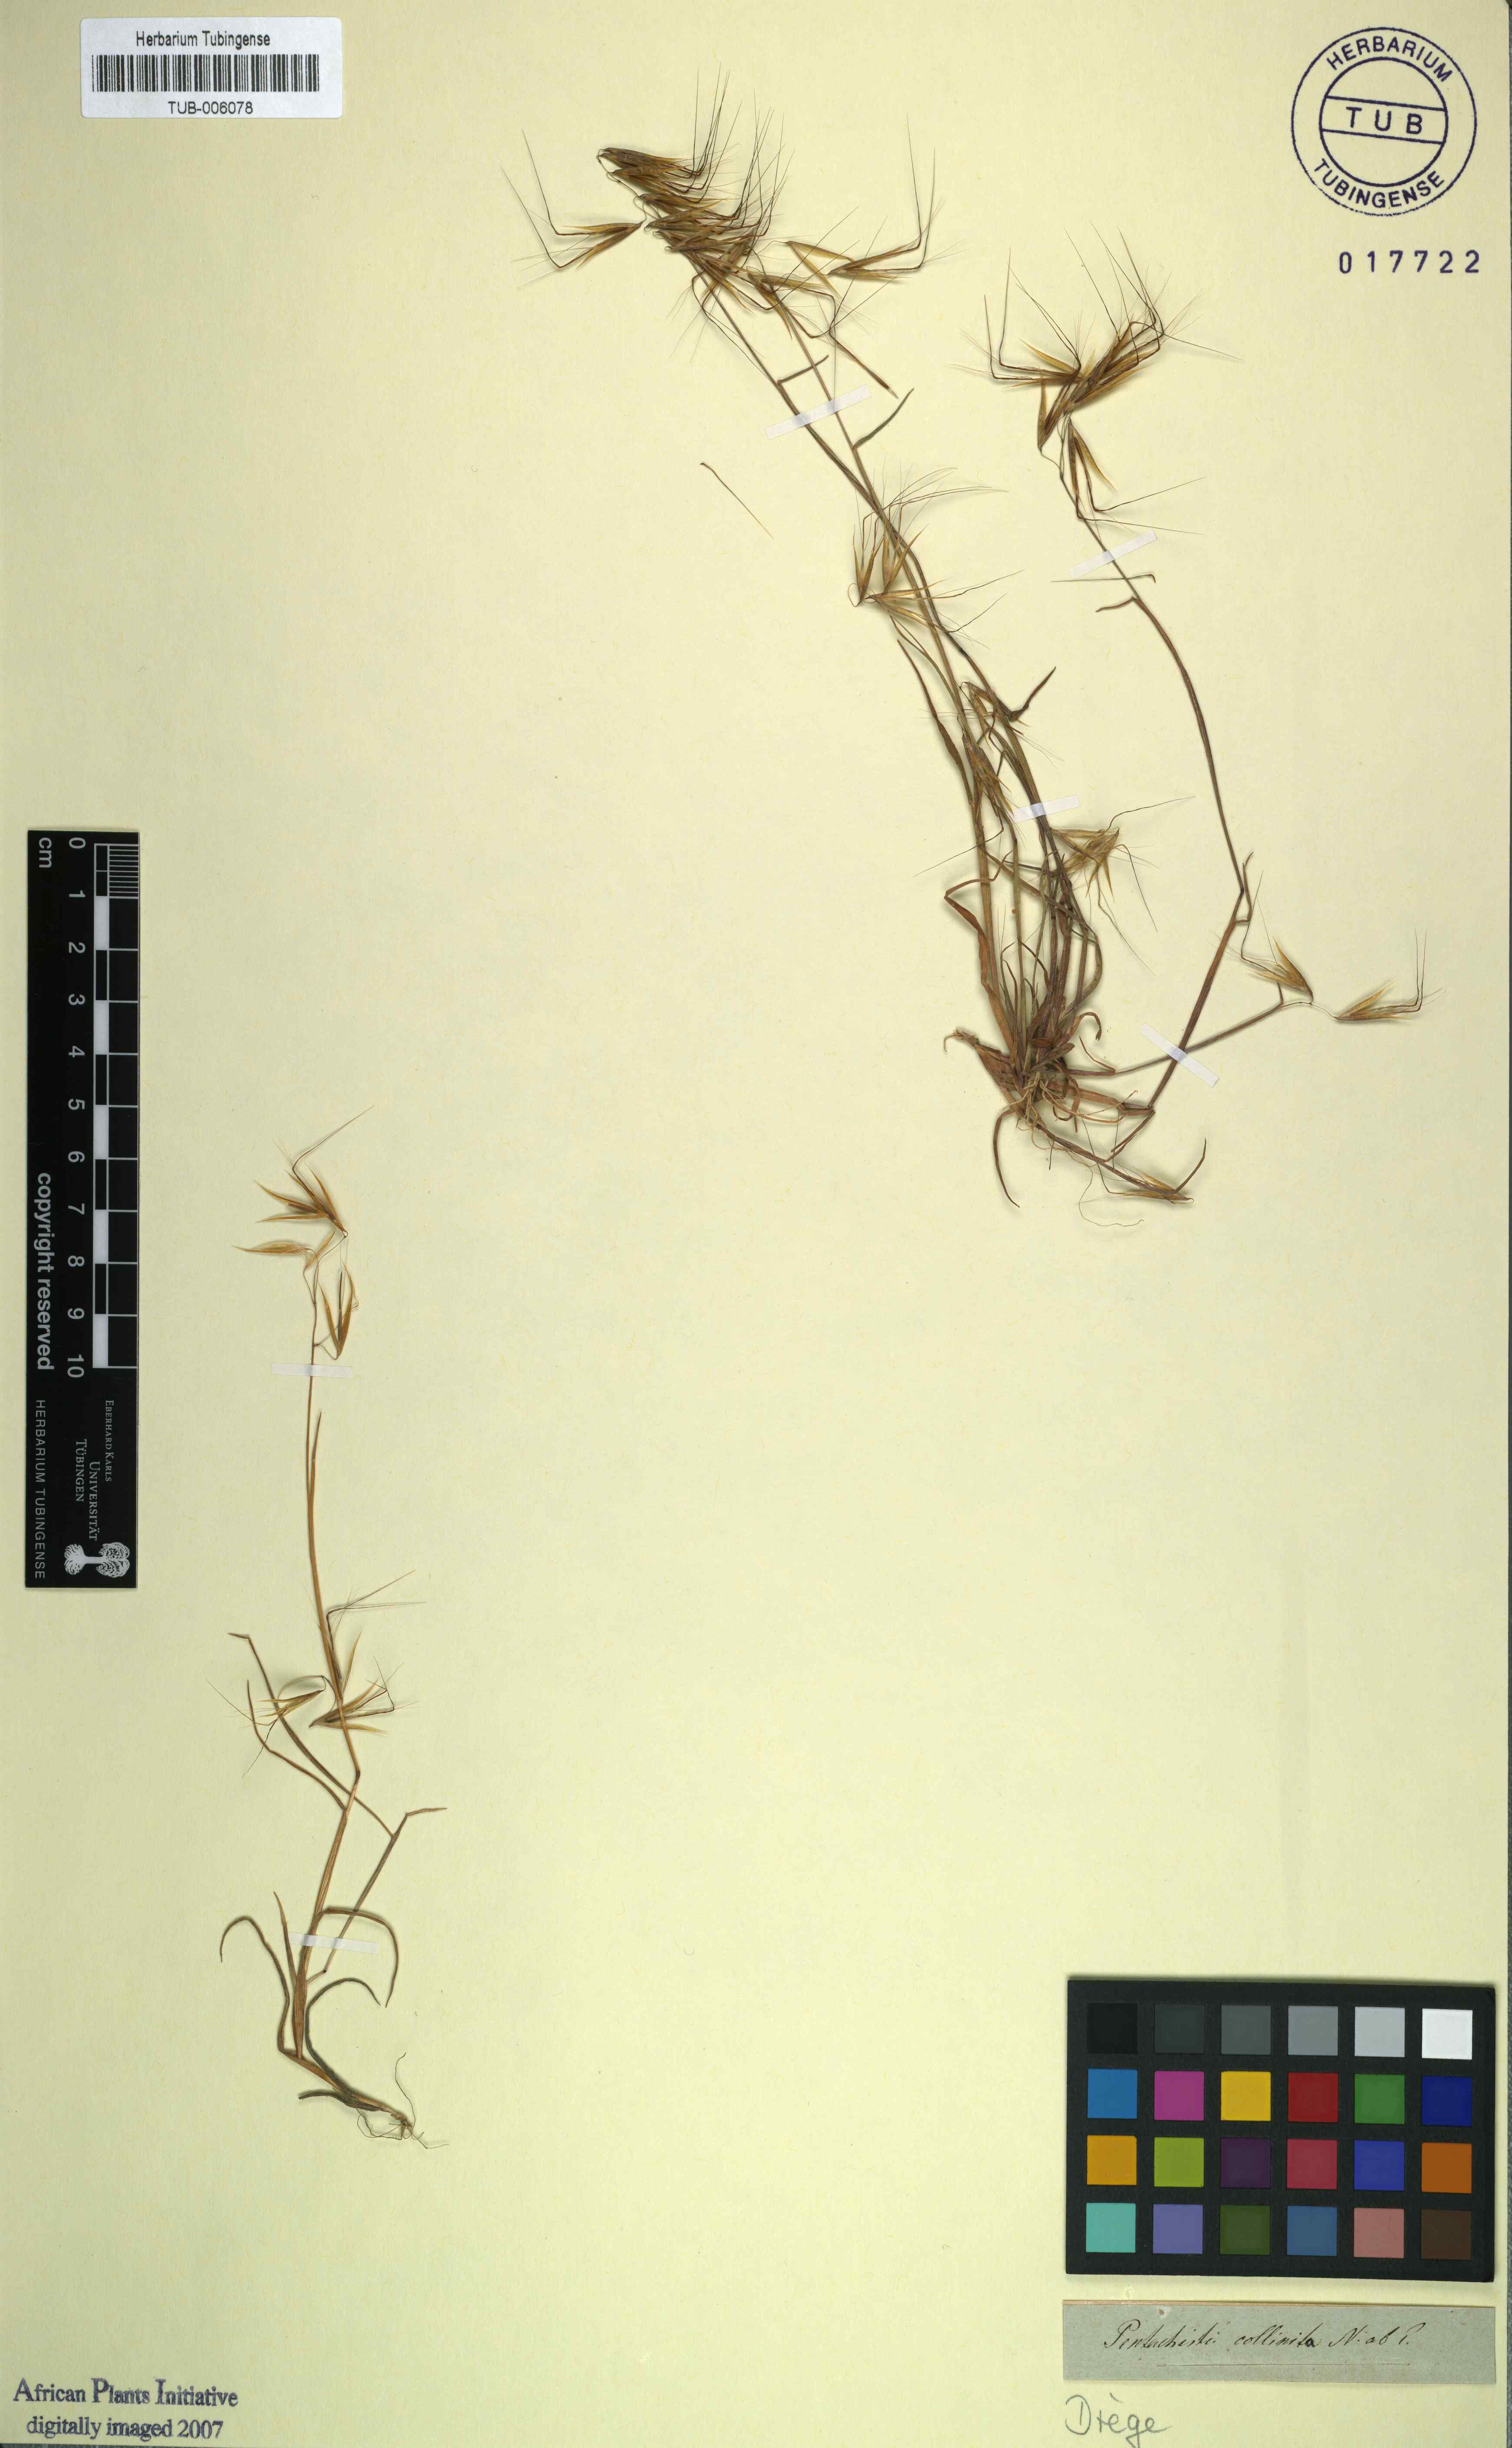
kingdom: Plantae
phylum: Tracheophyta
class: Liliopsida
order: Poales
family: Poaceae
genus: Pentameris
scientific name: Pentameris triseta
